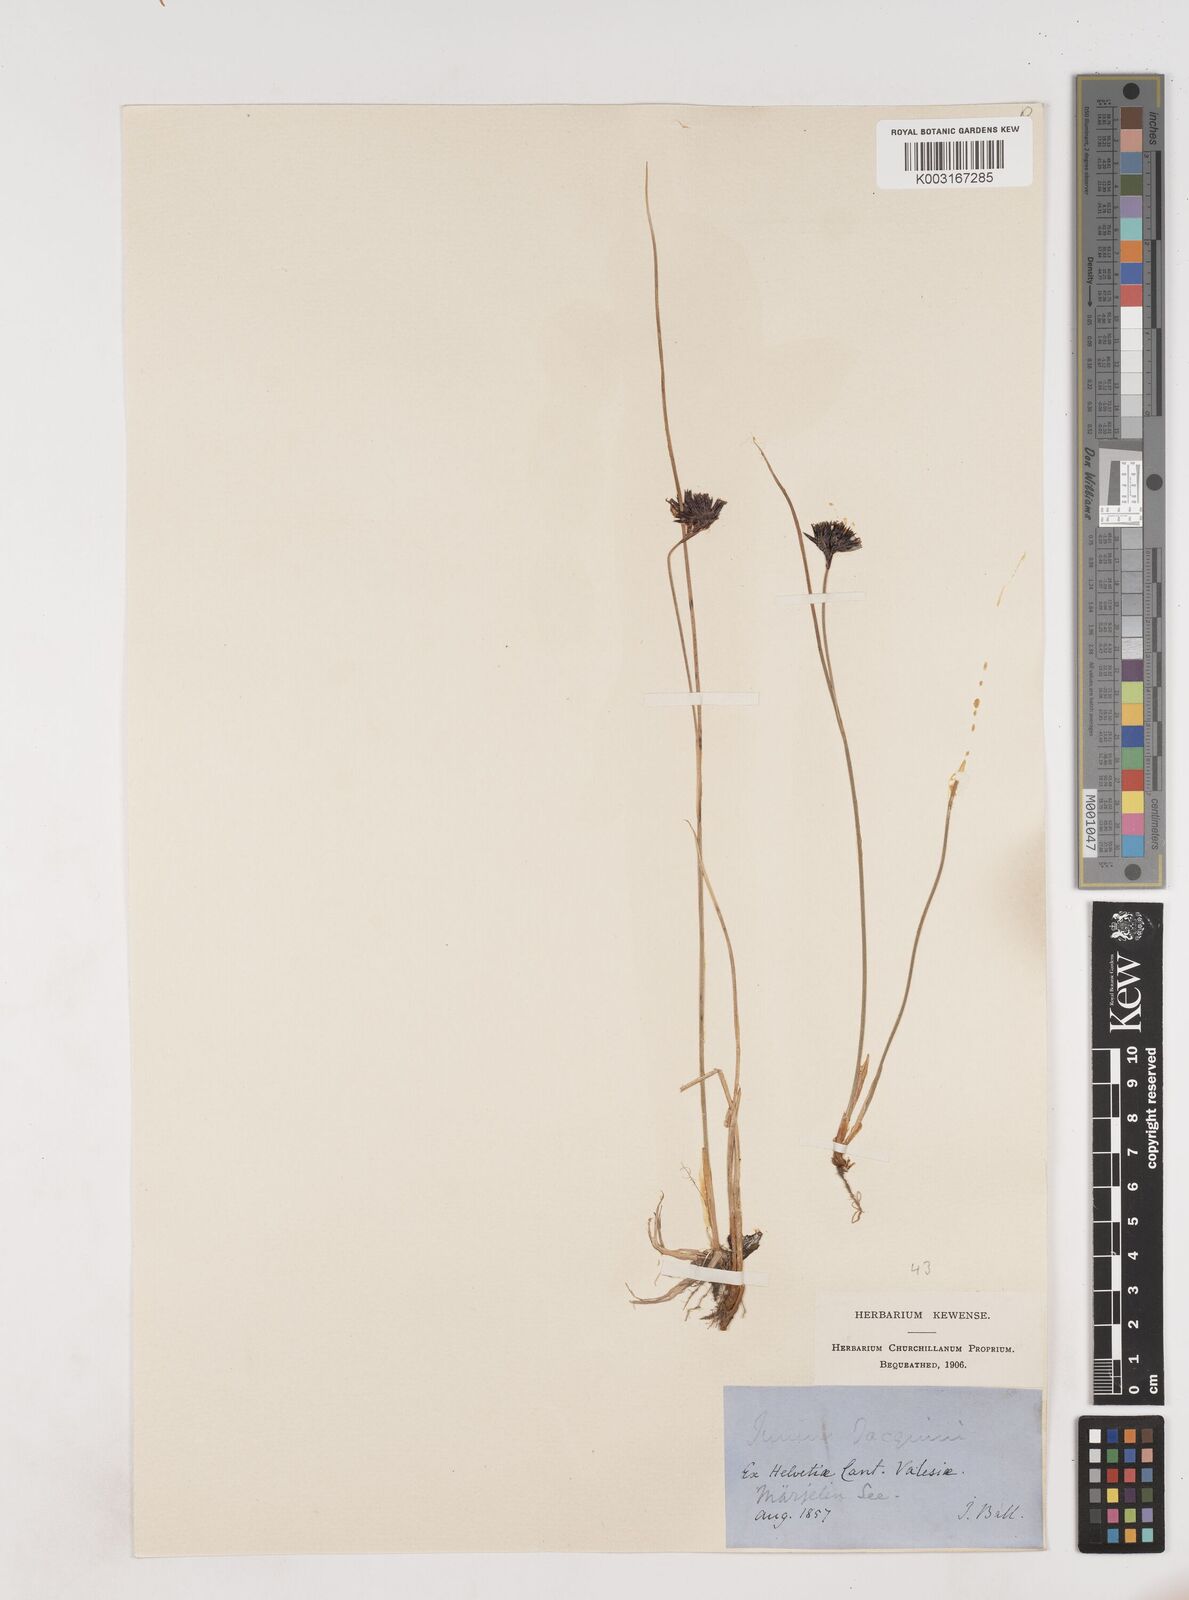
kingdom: Plantae
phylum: Tracheophyta
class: Liliopsida
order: Poales
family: Juncaceae
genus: Juncus
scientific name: Juncus jacquinii
